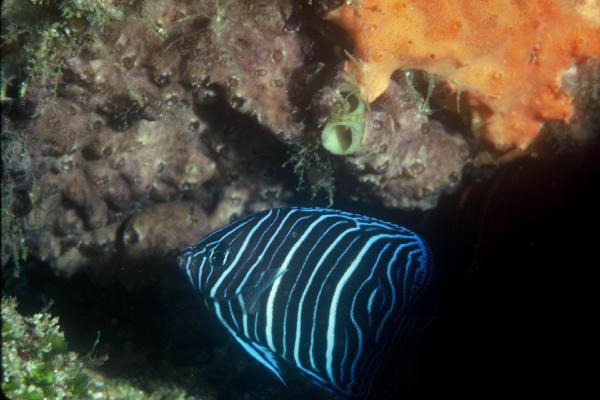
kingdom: Animalia
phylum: Chordata
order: Perciformes
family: Pomacanthidae
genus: Pomacanthus
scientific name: Pomacanthus rhomboides
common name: Old woman
